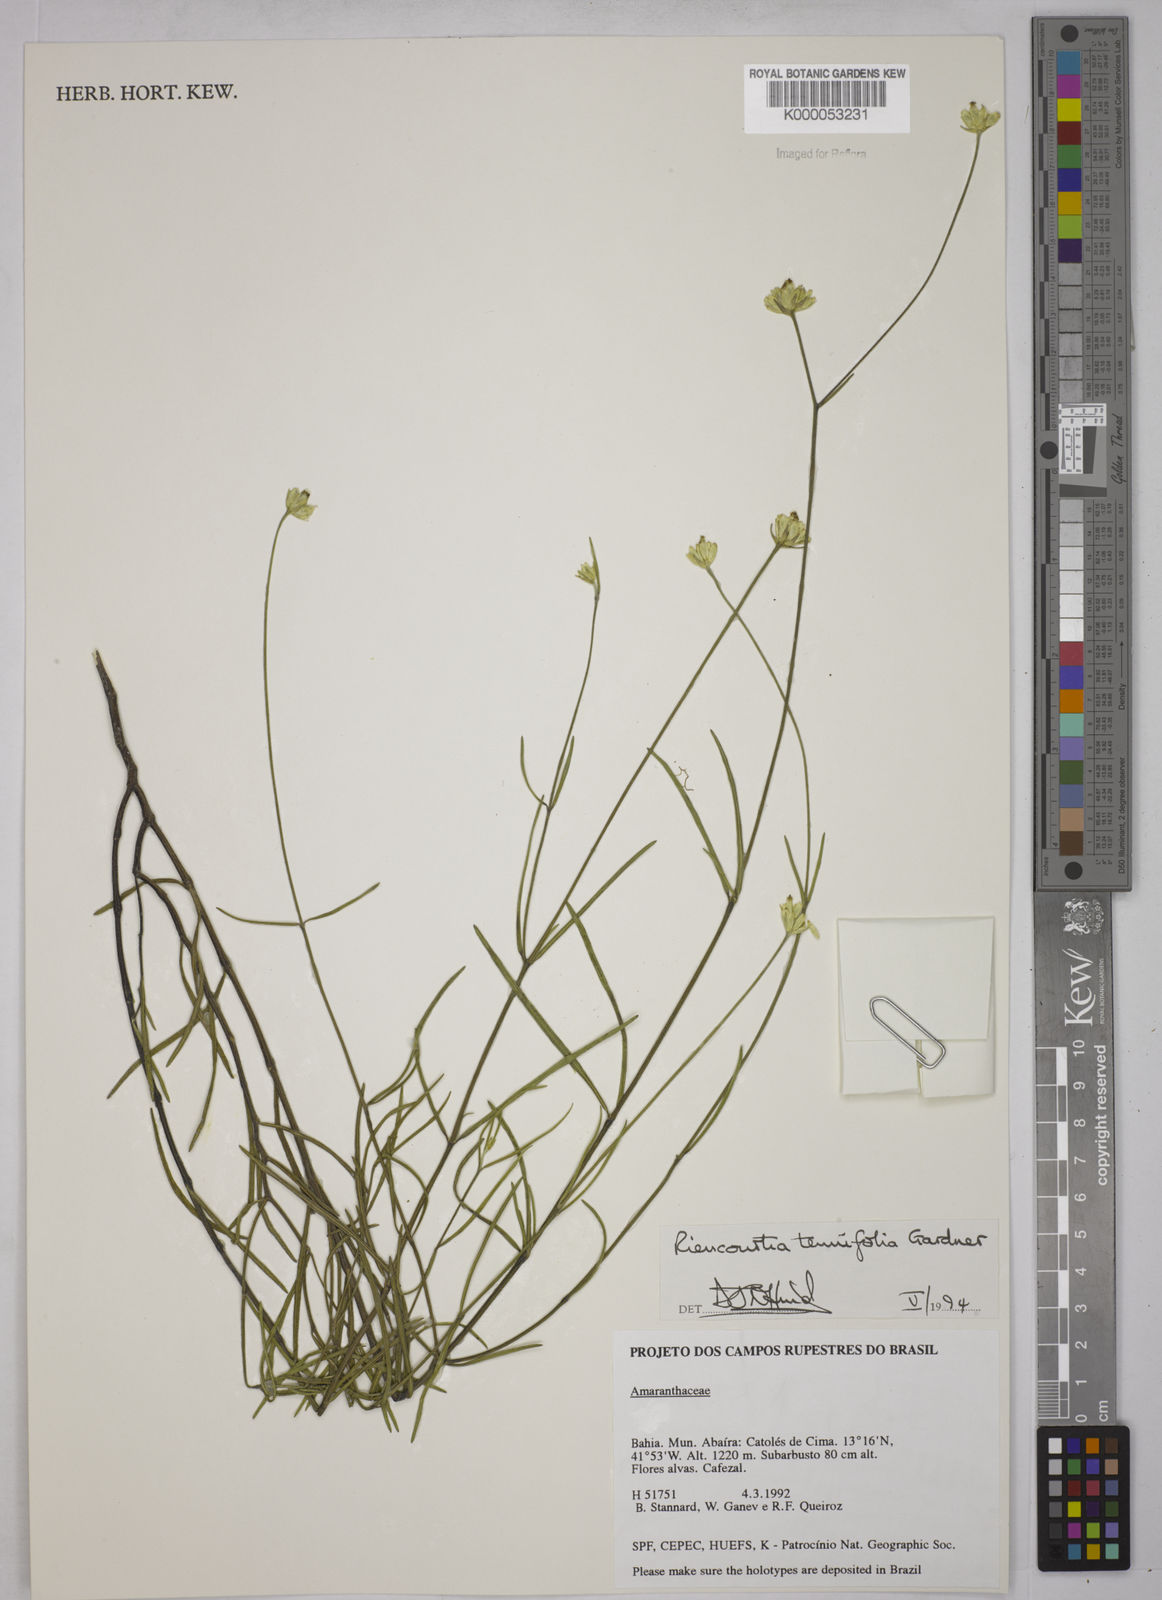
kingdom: Plantae
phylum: Tracheophyta
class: Magnoliopsida
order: Asterales
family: Asteraceae
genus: Riencourtia
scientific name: Riencourtia tenuifolia
